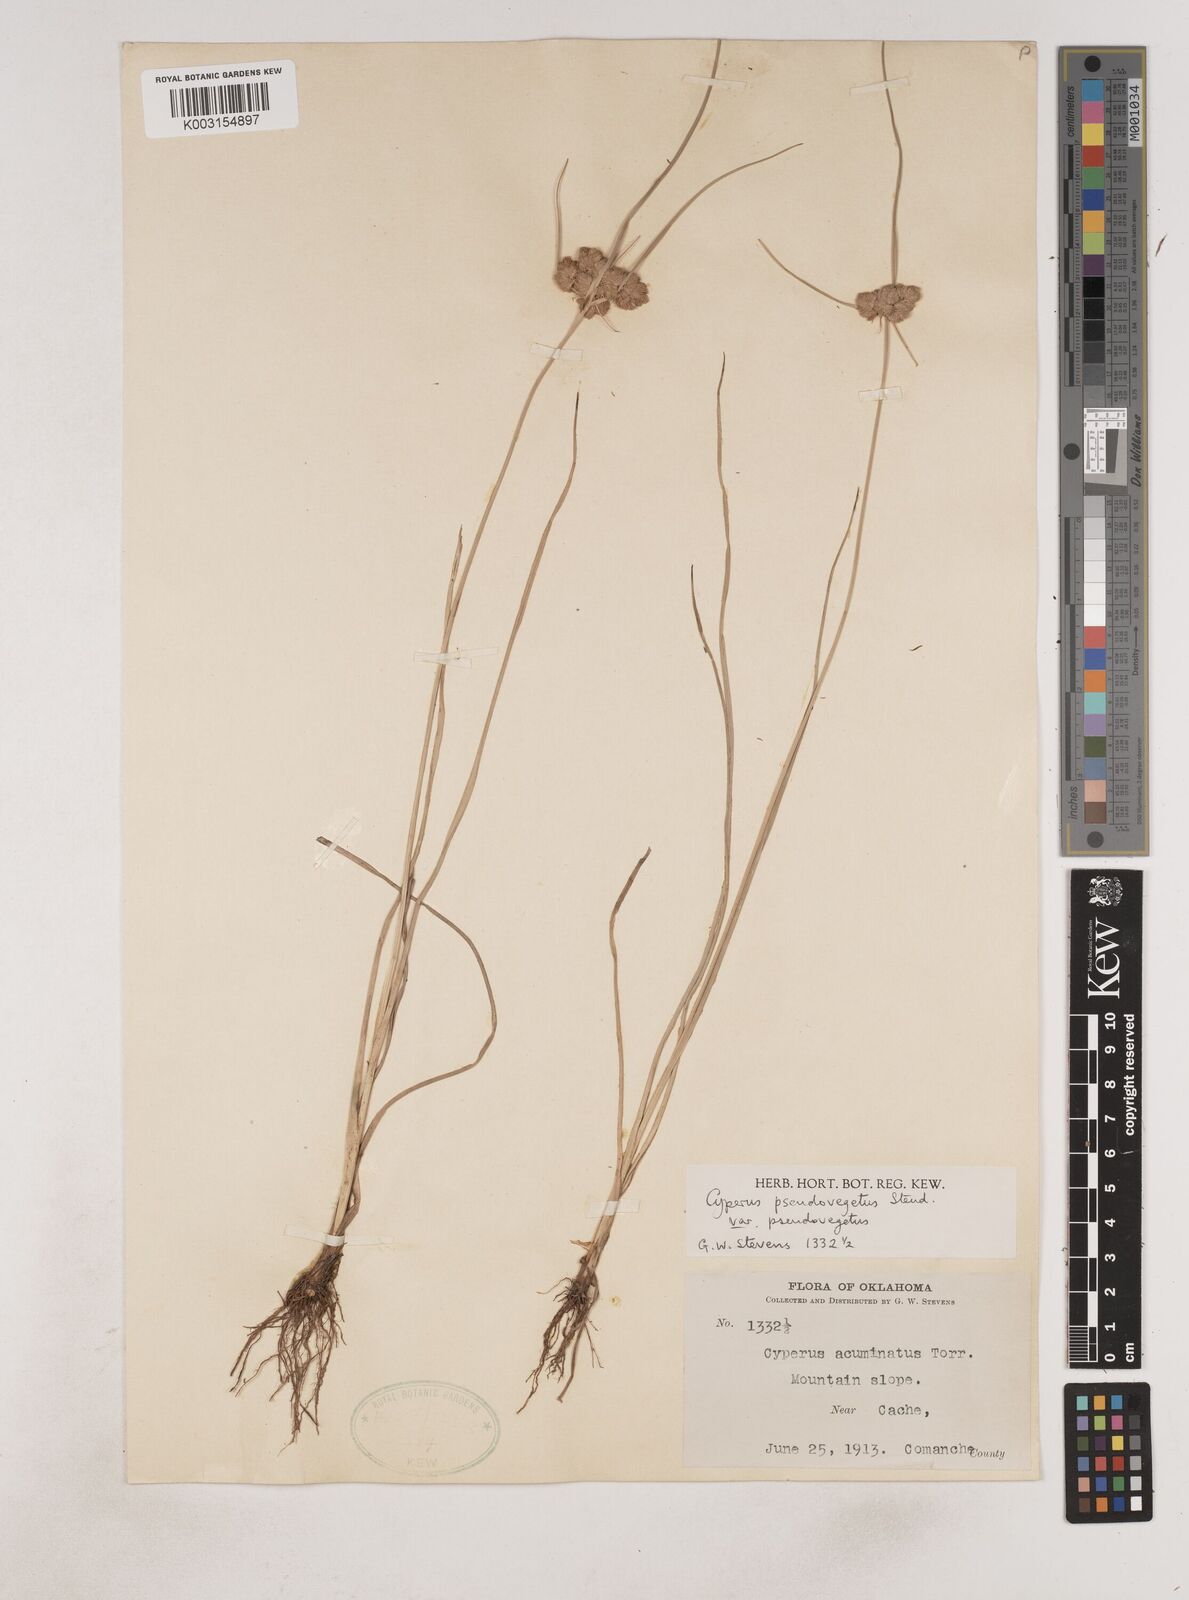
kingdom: Plantae
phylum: Tracheophyta
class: Liliopsida
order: Poales
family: Cyperaceae
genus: Cyperus
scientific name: Cyperus pseudovegetus
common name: Marsh flat sedge
